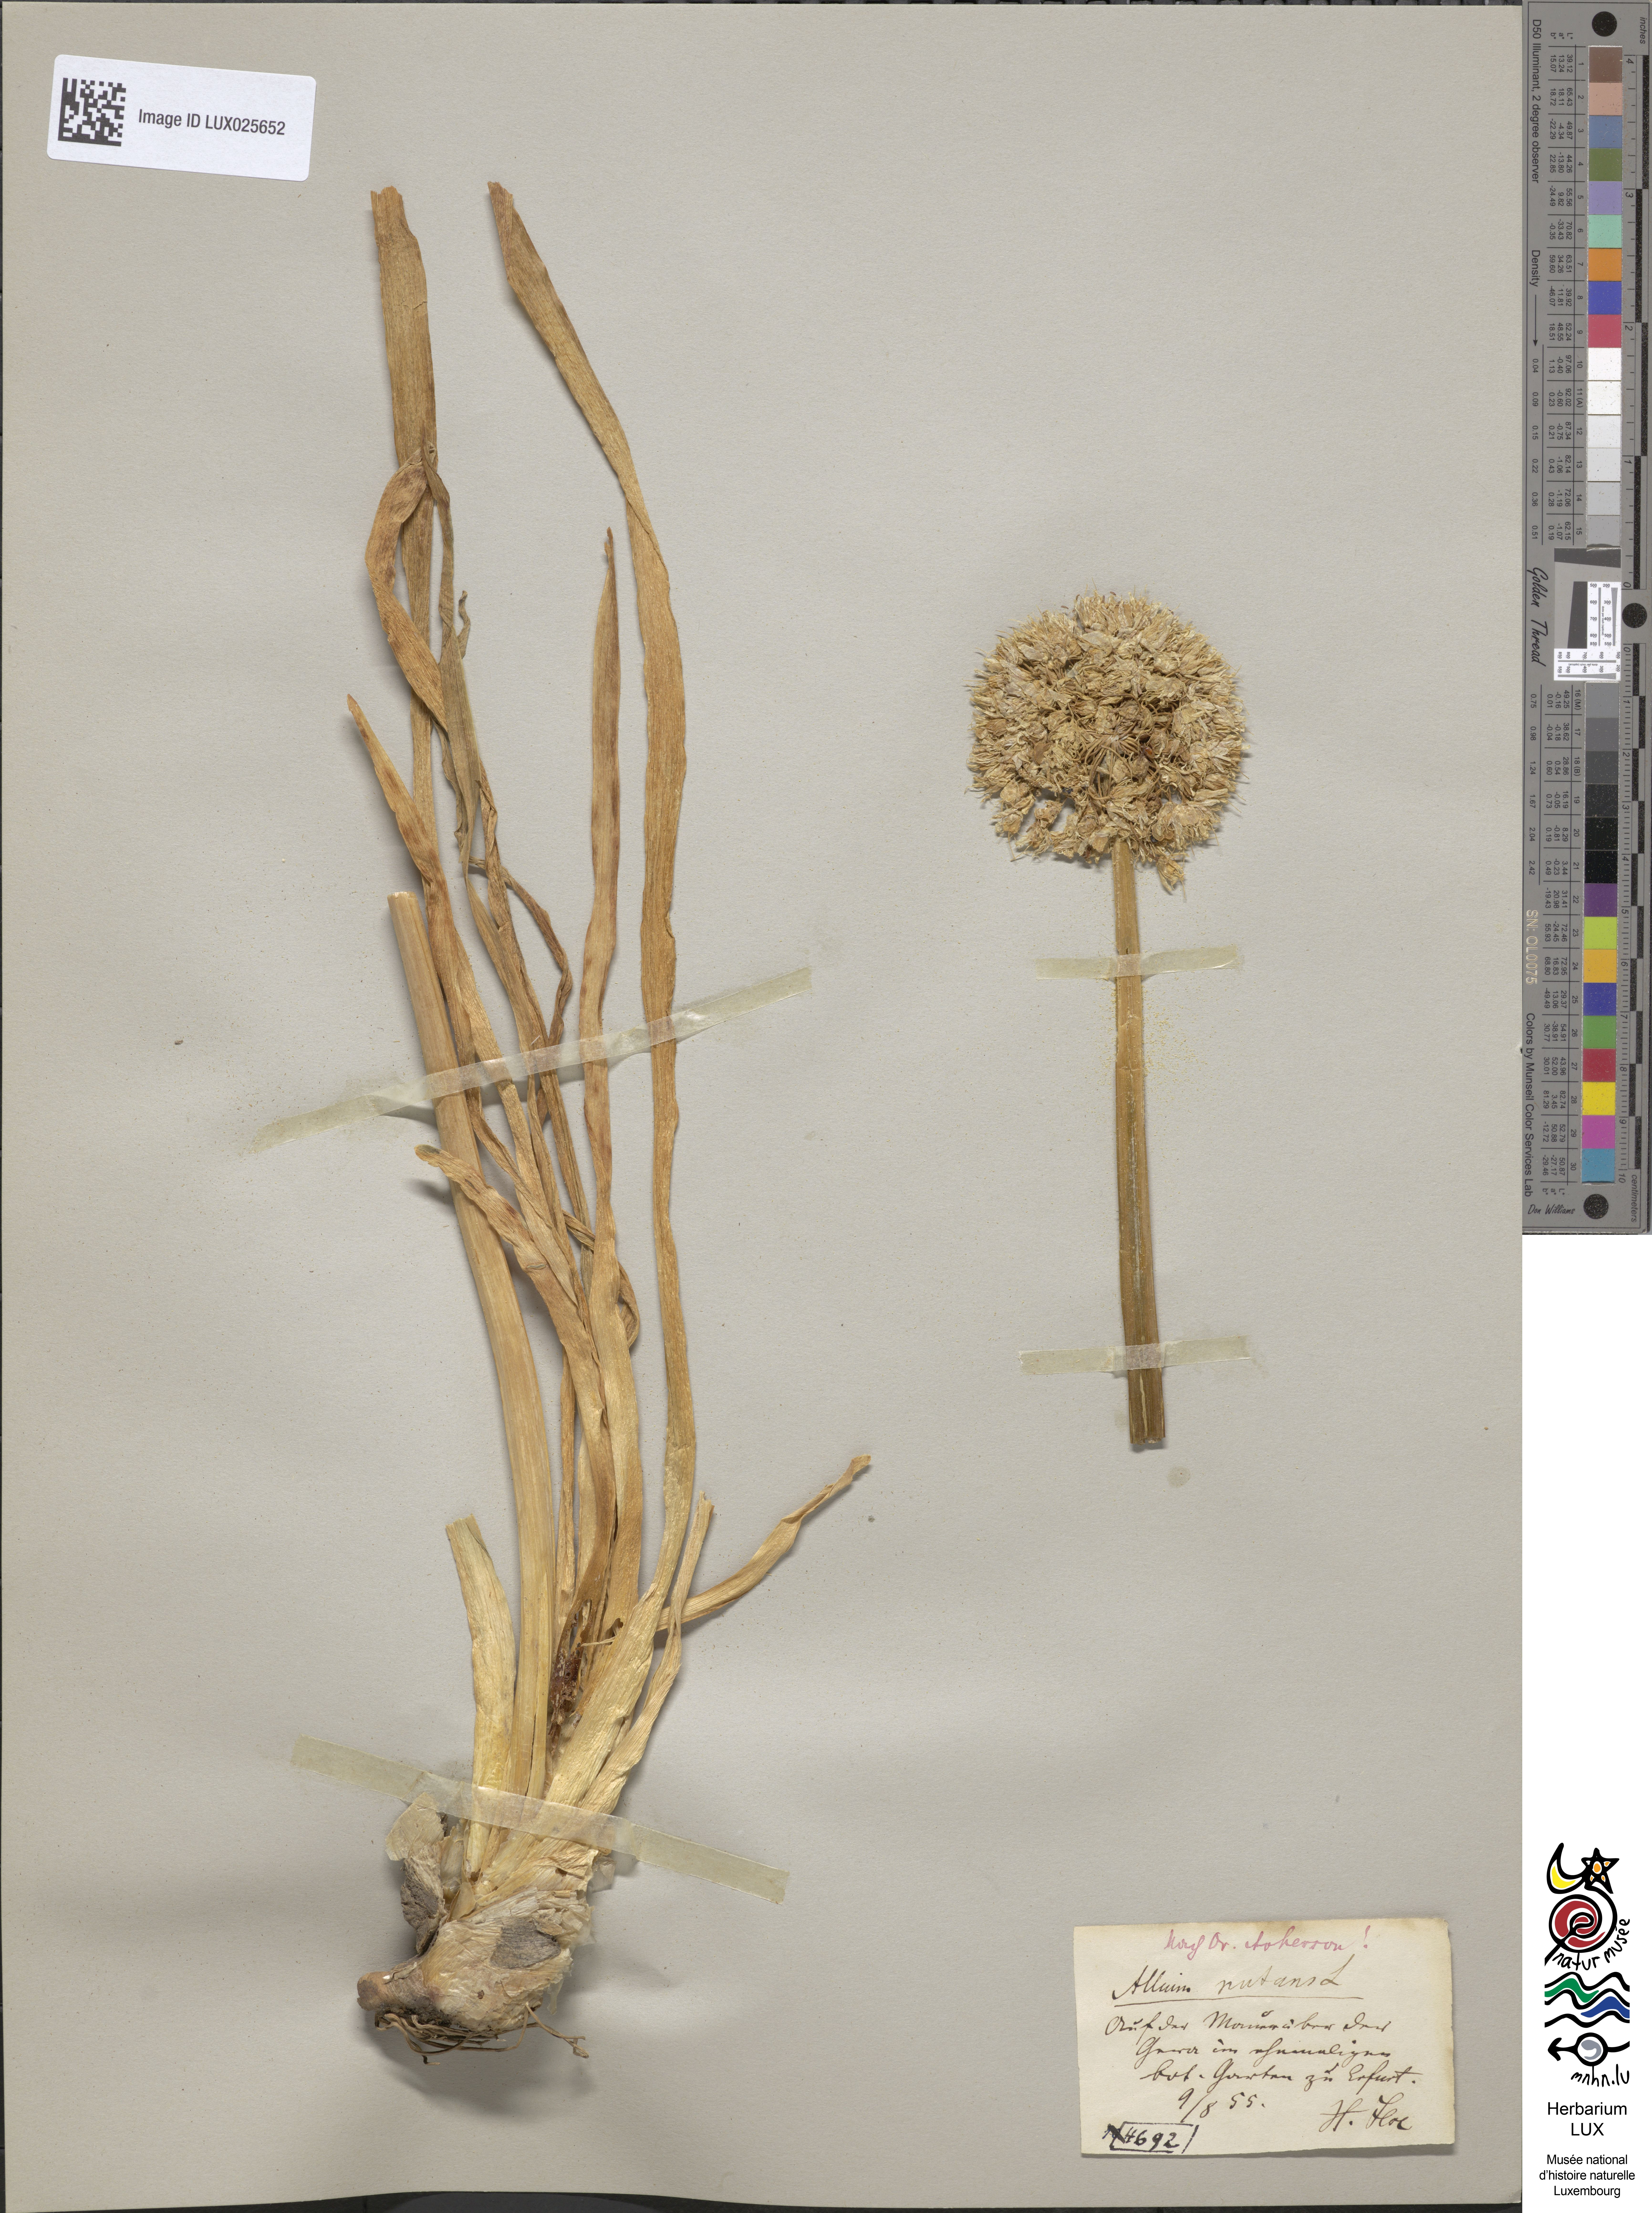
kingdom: Plantae
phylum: Tracheophyta
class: Liliopsida
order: Asparagales
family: Amaryllidaceae
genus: Allium
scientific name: Allium nutans
